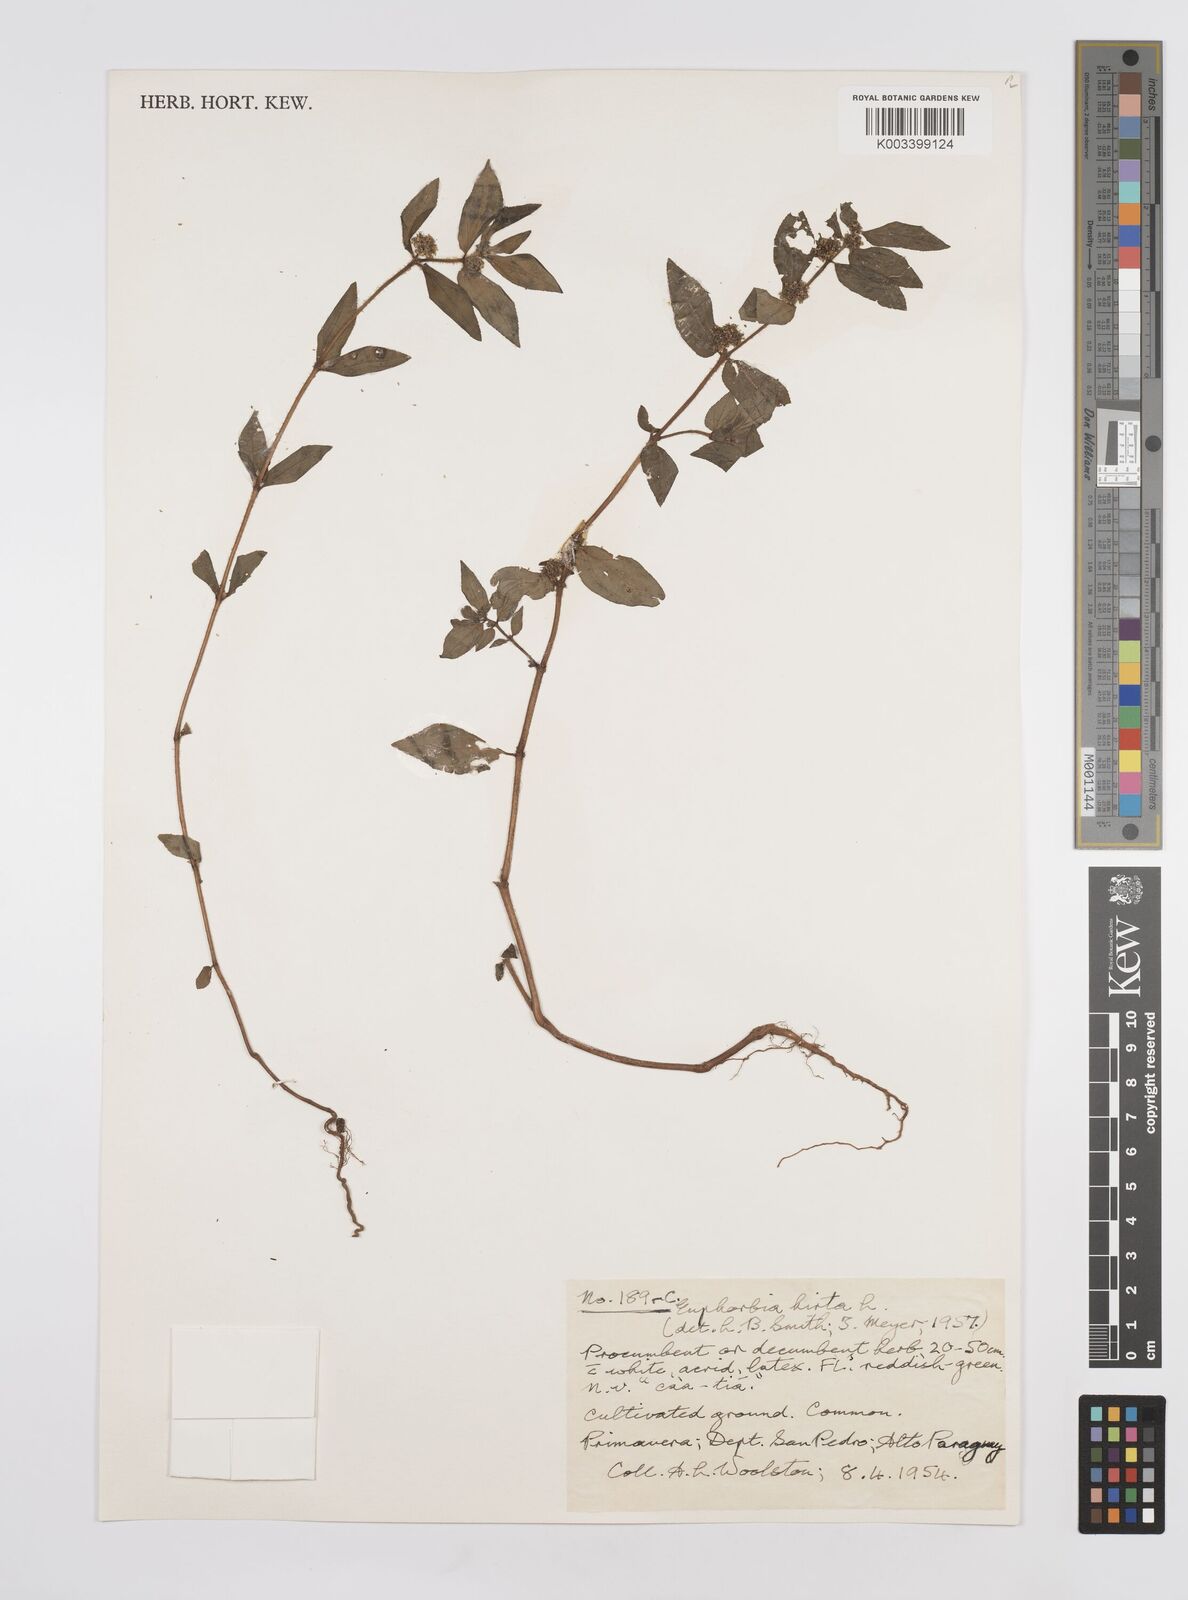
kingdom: Plantae
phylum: Tracheophyta
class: Magnoliopsida
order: Malpighiales
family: Euphorbiaceae
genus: Euphorbia
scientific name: Euphorbia hirta
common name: Pillpod sandmat
